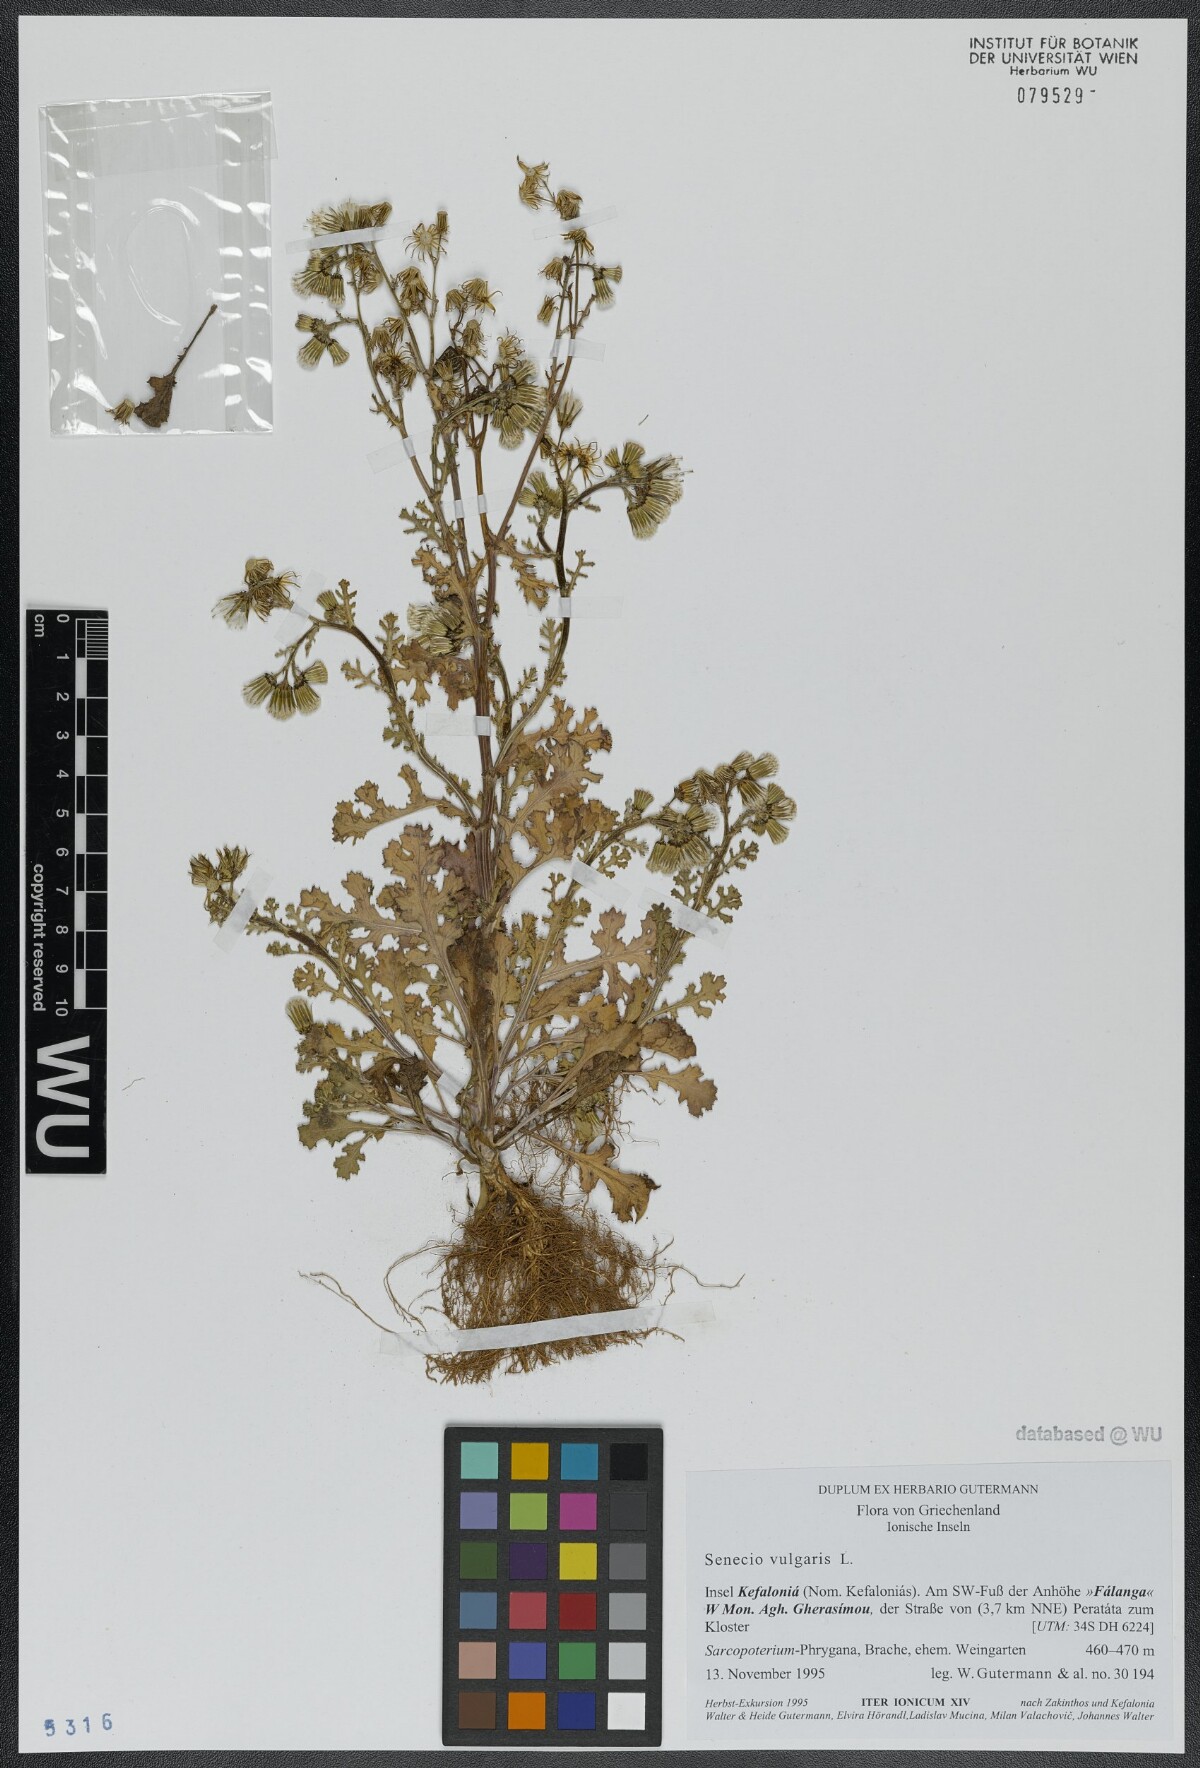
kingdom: Plantae
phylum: Tracheophyta
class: Magnoliopsida
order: Asterales
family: Asteraceae
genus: Senecio
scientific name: Senecio vulgaris
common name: Old-man-in-the-spring
